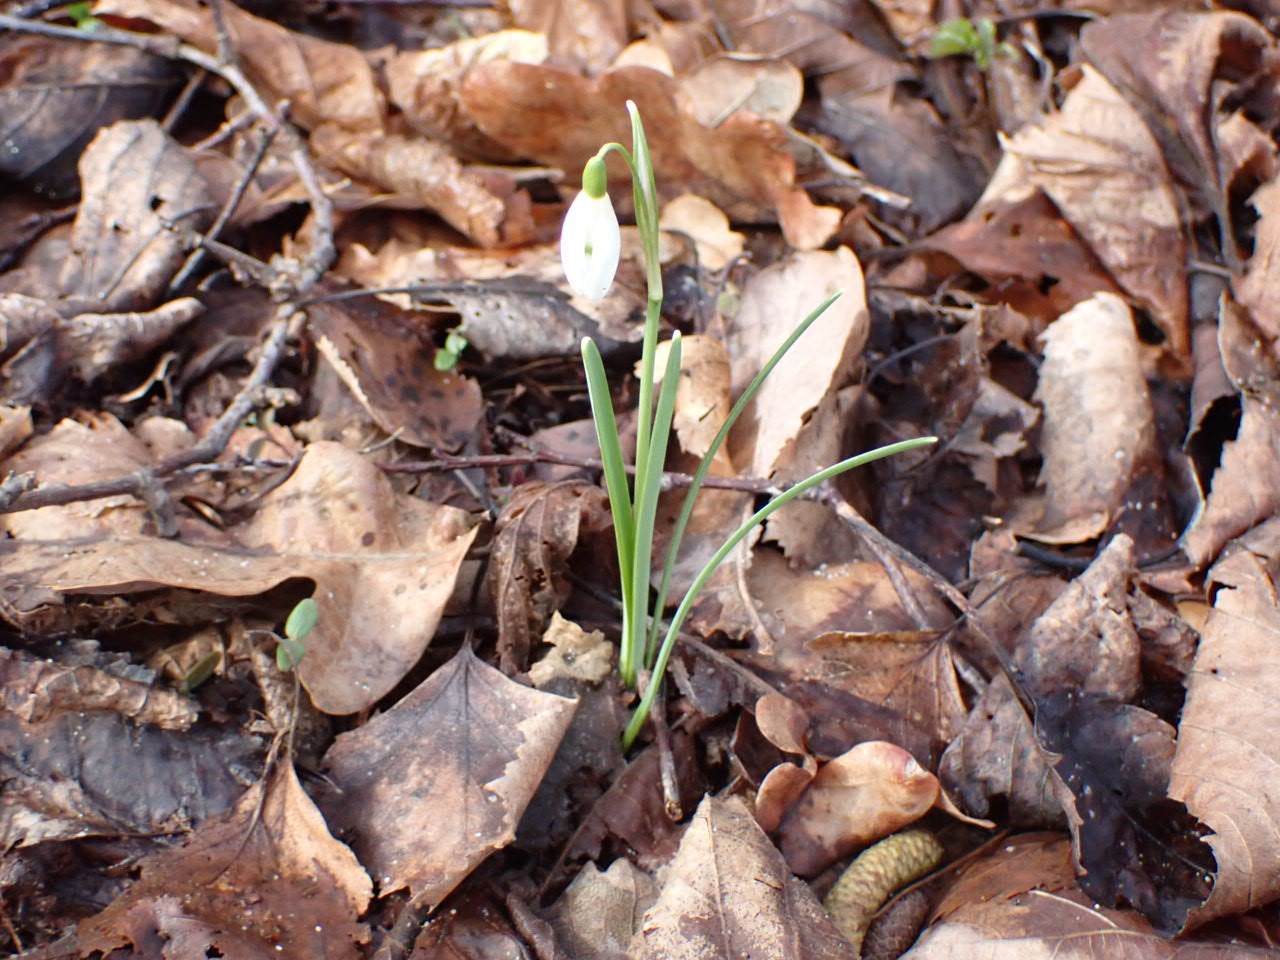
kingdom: Plantae
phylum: Tracheophyta
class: Liliopsida
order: Asparagales
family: Amaryllidaceae
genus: Galanthus
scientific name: Galanthus nivalis
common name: Vintergæk
